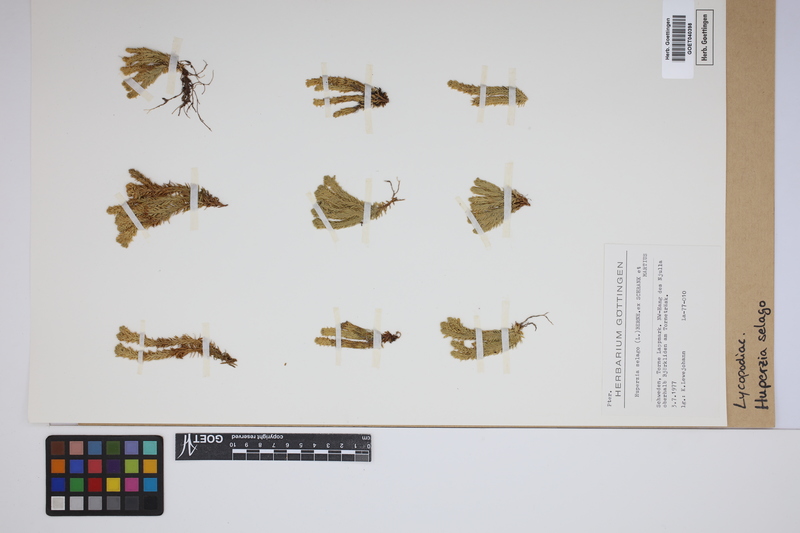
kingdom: Plantae
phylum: Tracheophyta
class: Lycopodiopsida
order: Lycopodiales
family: Lycopodiaceae
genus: Huperzia
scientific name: Huperzia selago
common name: Northern firmoss
